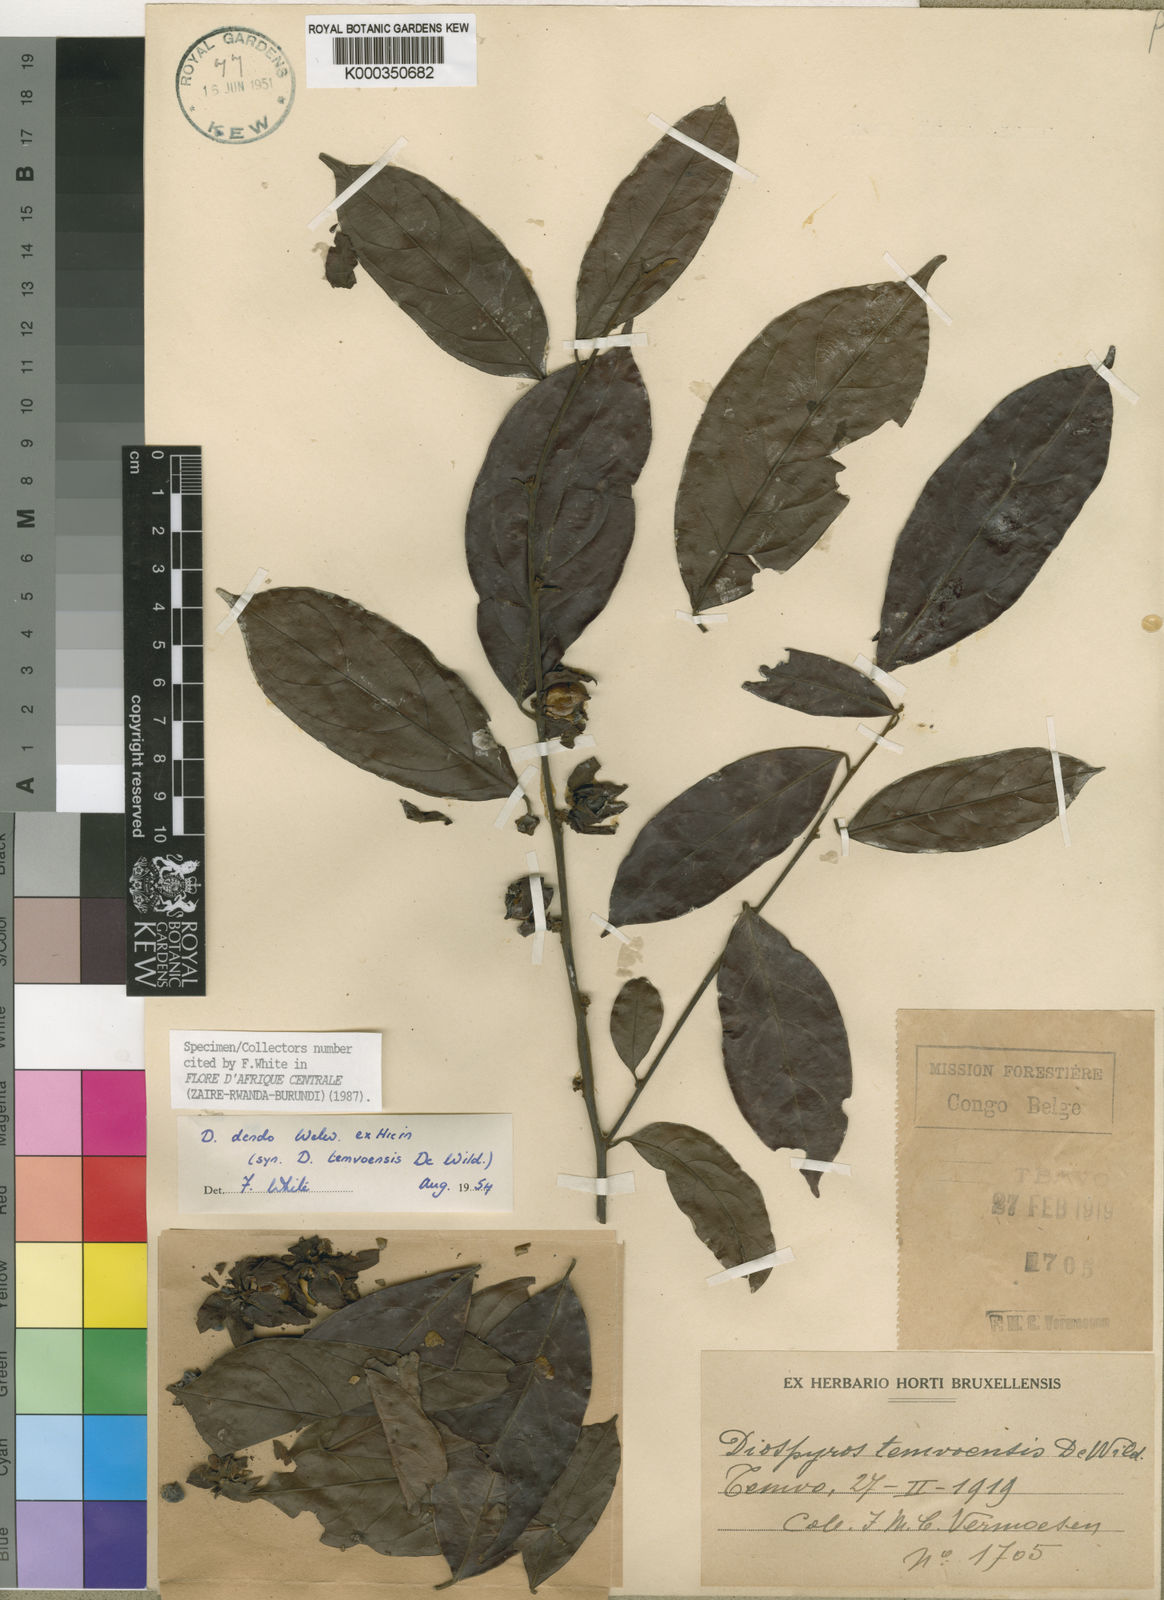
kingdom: Plantae
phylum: Tracheophyta
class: Magnoliopsida
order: Ericales
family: Ebenaceae
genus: Diospyros
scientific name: Diospyros dendo
